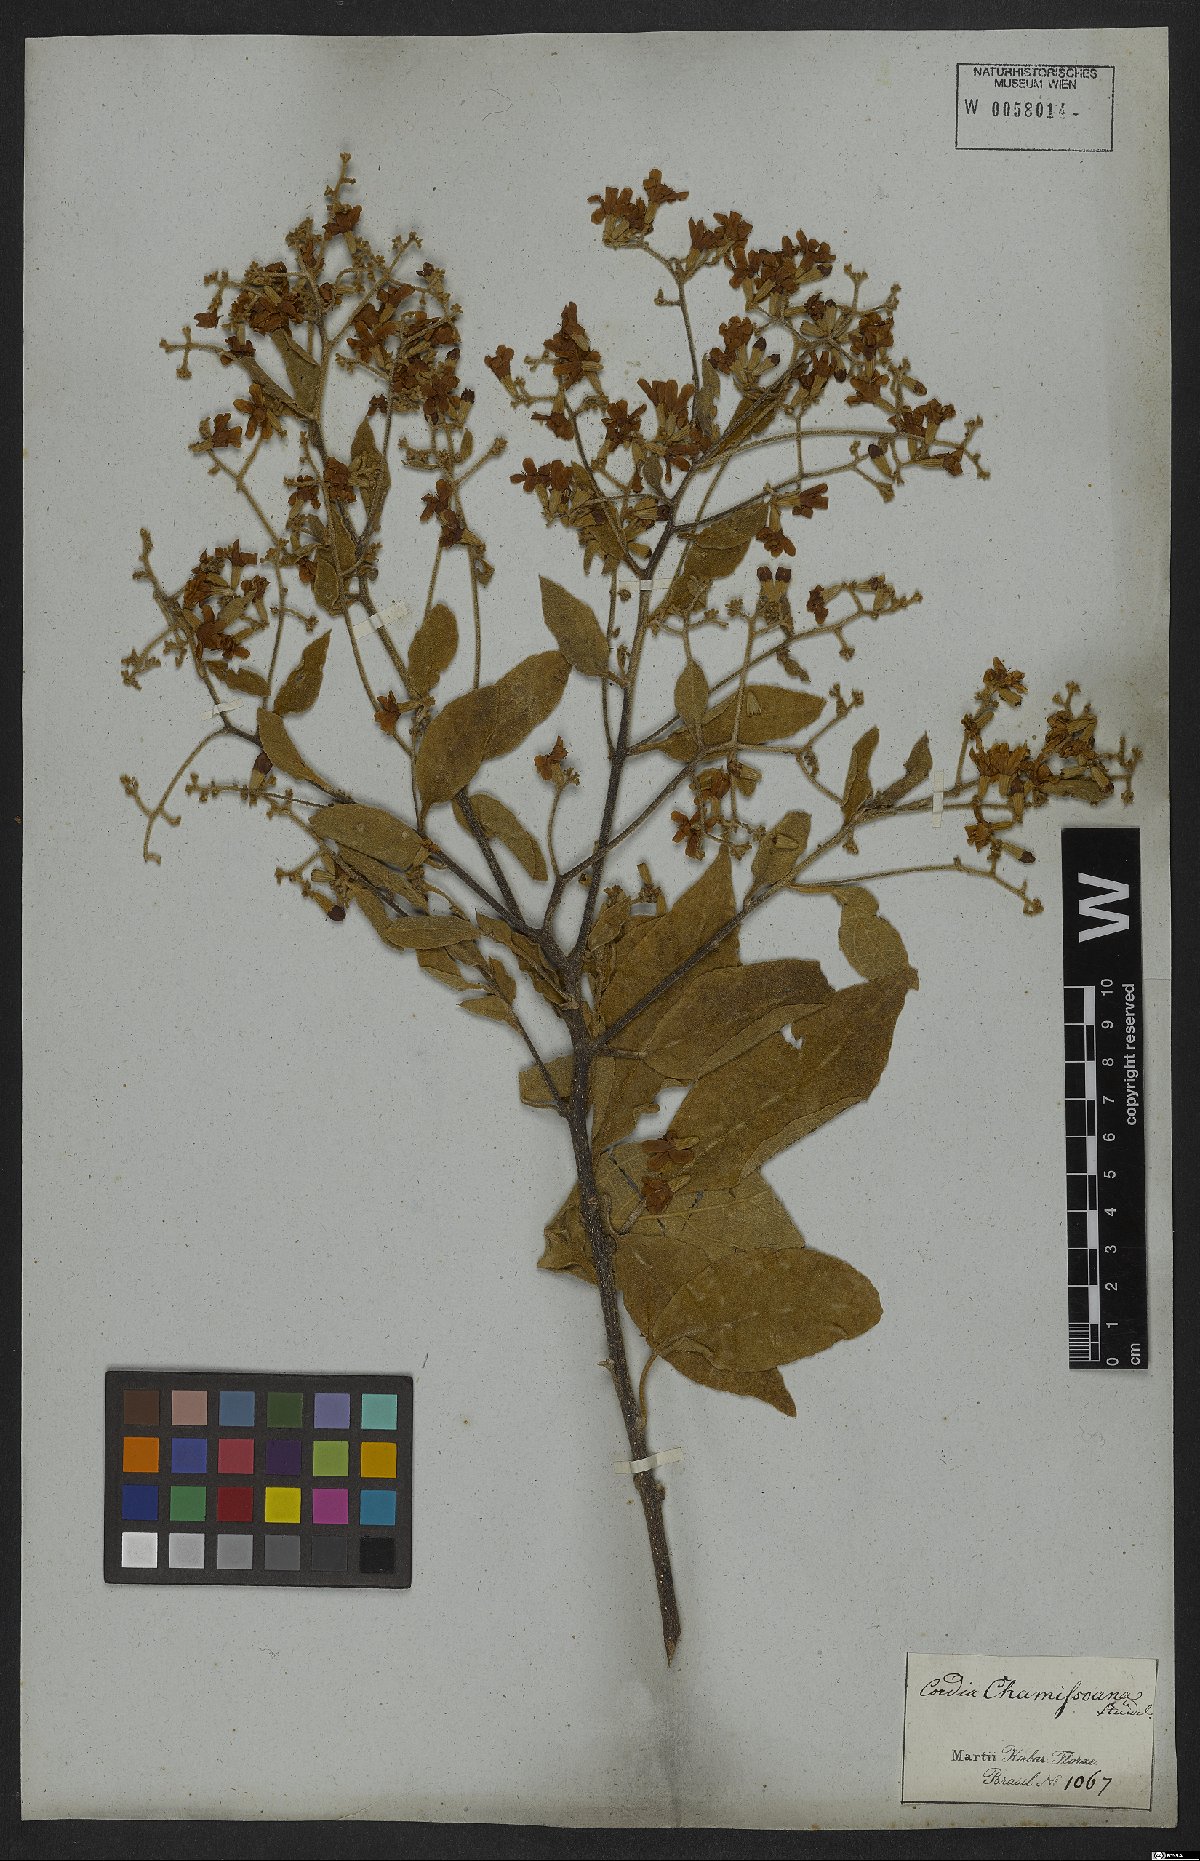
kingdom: Plantae
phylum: Tracheophyta
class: Magnoliopsida
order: Boraginales
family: Cordiaceae
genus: Cordia
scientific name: Cordia chamissoniana
